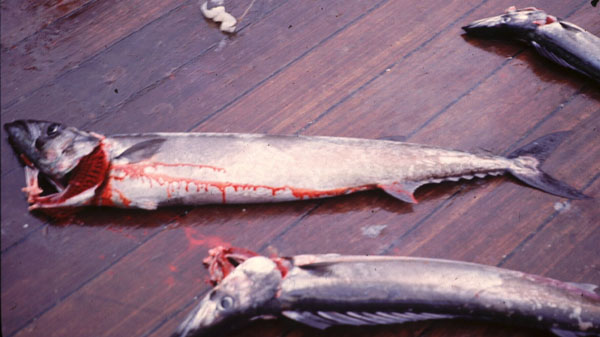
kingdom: Animalia
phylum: Chordata
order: Perciformes
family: Gempylidae
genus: Thyrsites
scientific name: Thyrsites atun
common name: Snoek
